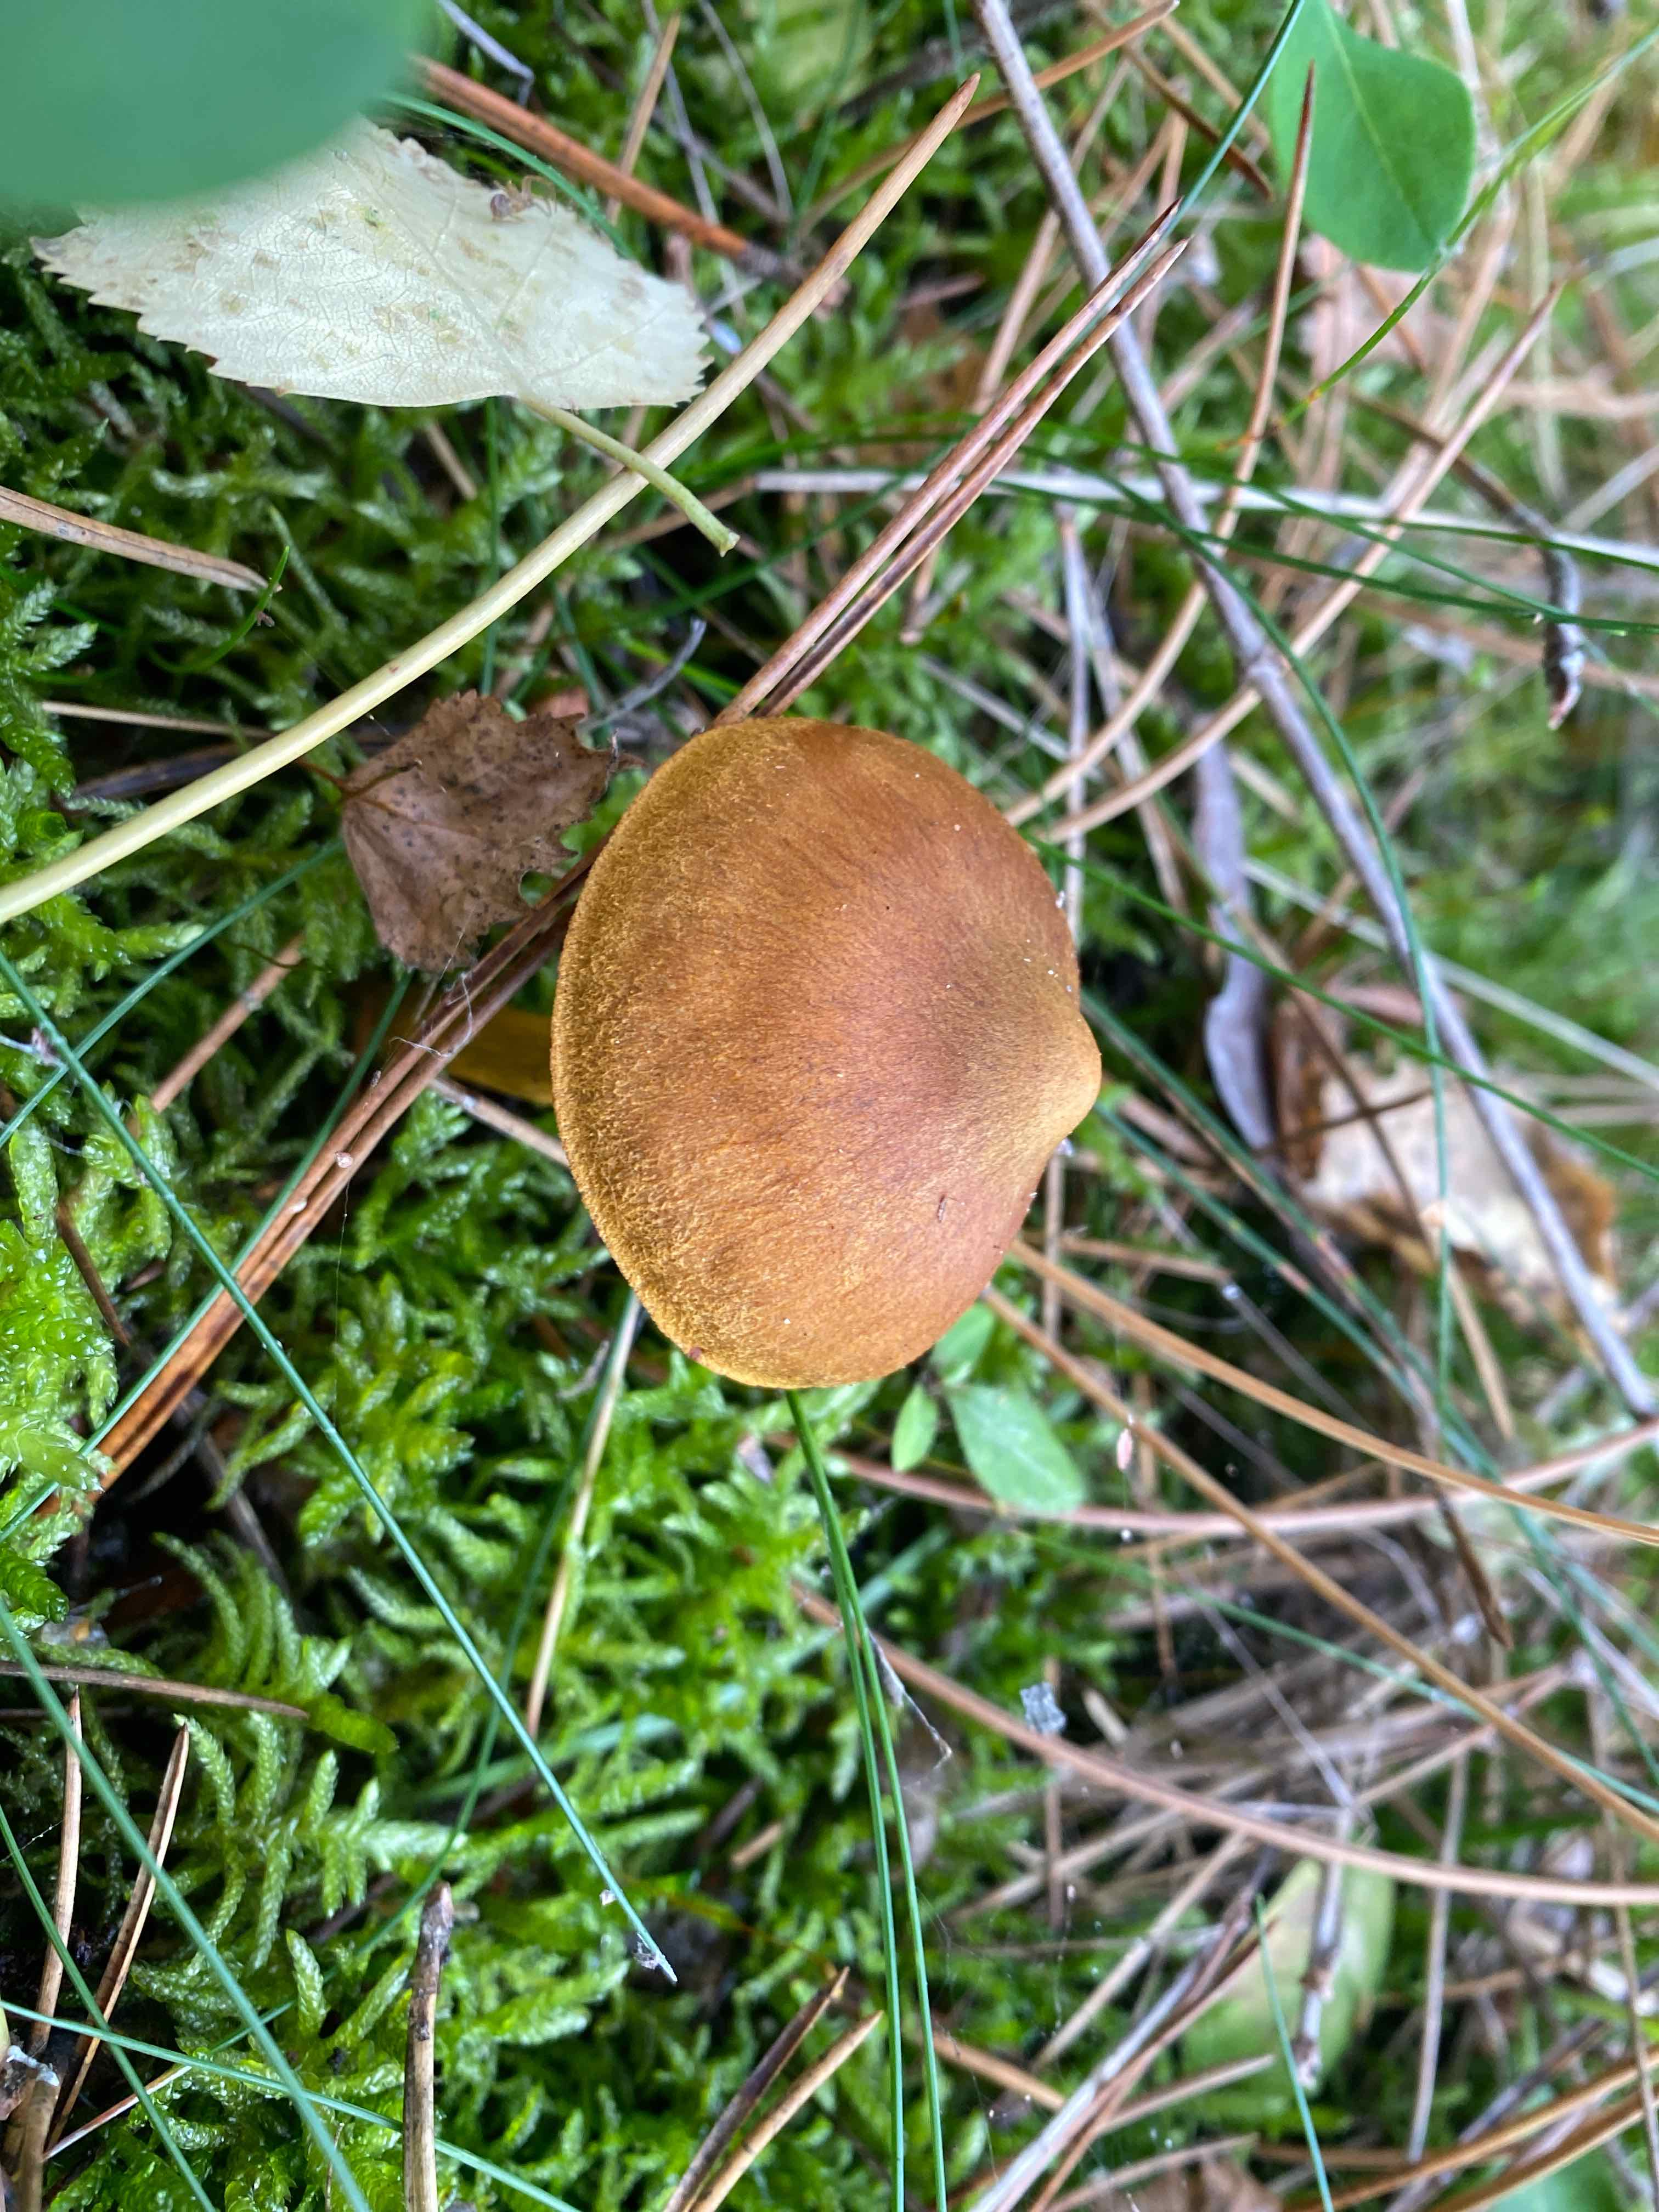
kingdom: Fungi
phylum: Basidiomycota
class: Agaricomycetes
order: Agaricales
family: Cortinariaceae
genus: Cortinarius
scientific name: Cortinarius
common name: cinnoberbladet slørhat
